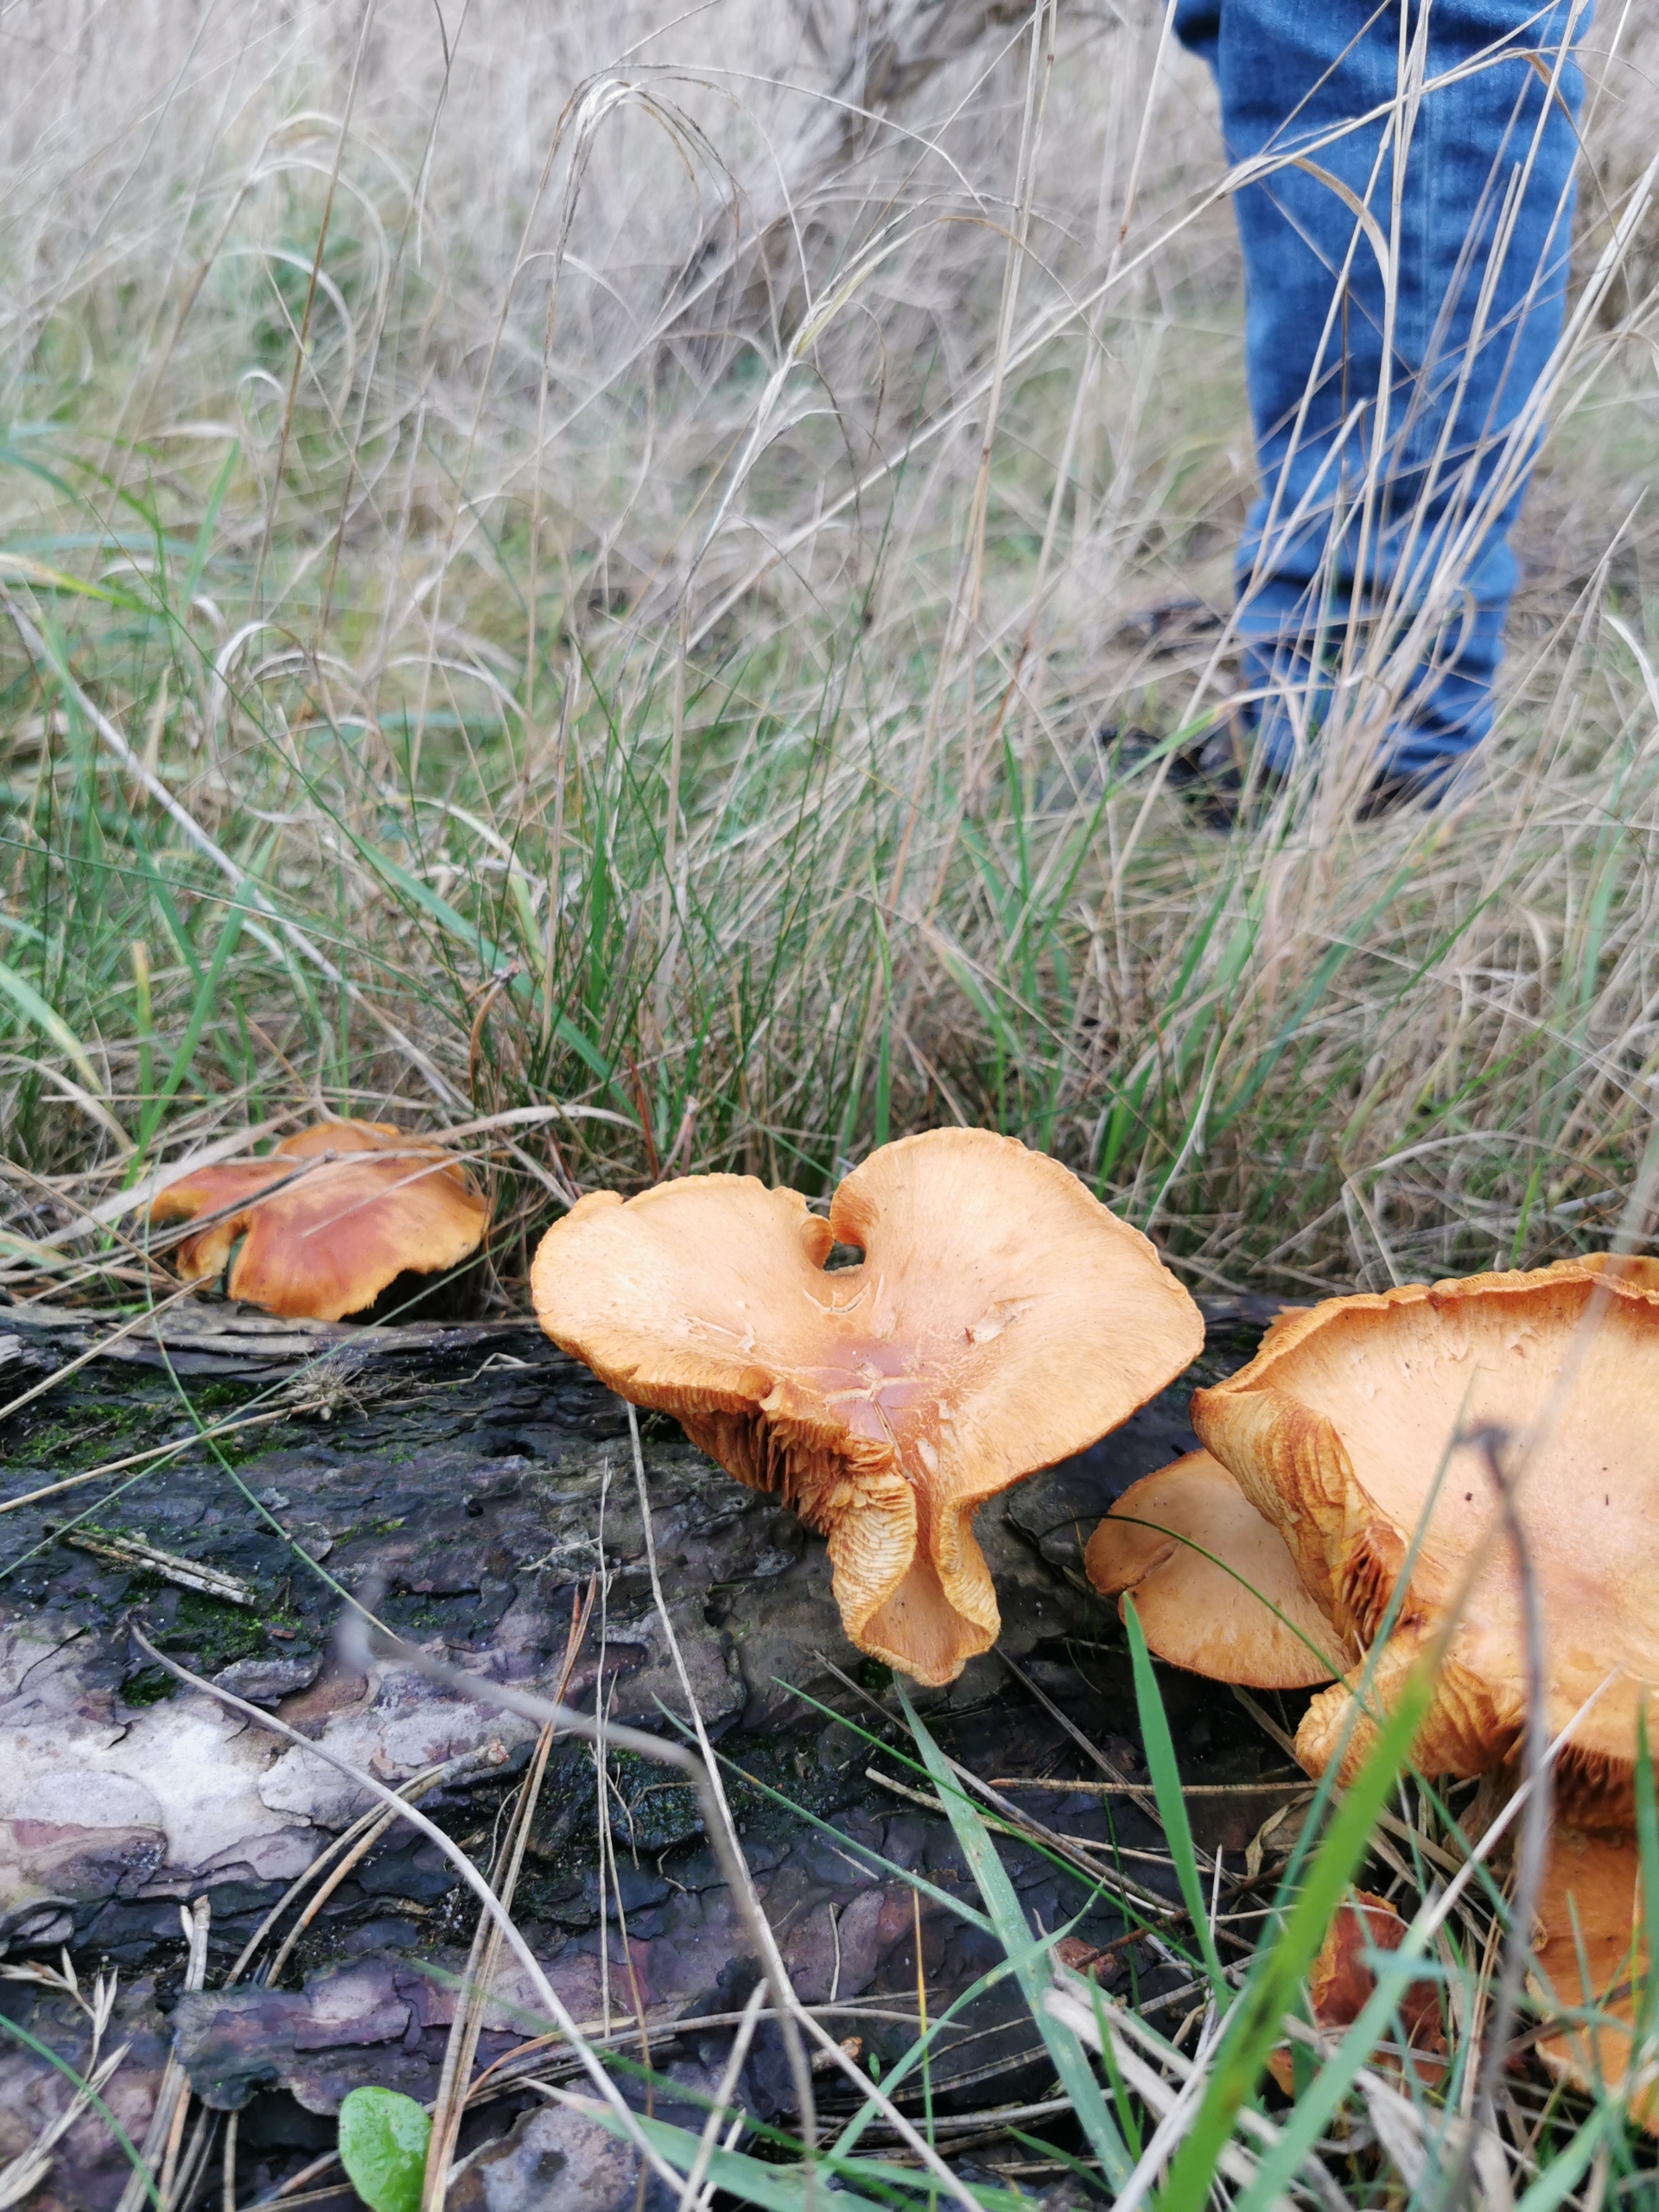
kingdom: Fungi
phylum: Basidiomycota
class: Agaricomycetes
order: Agaricales
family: Tricholomataceae
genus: Tricholomopsis
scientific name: Tricholomopsis rutilans
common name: Purpur-væbnerhat
